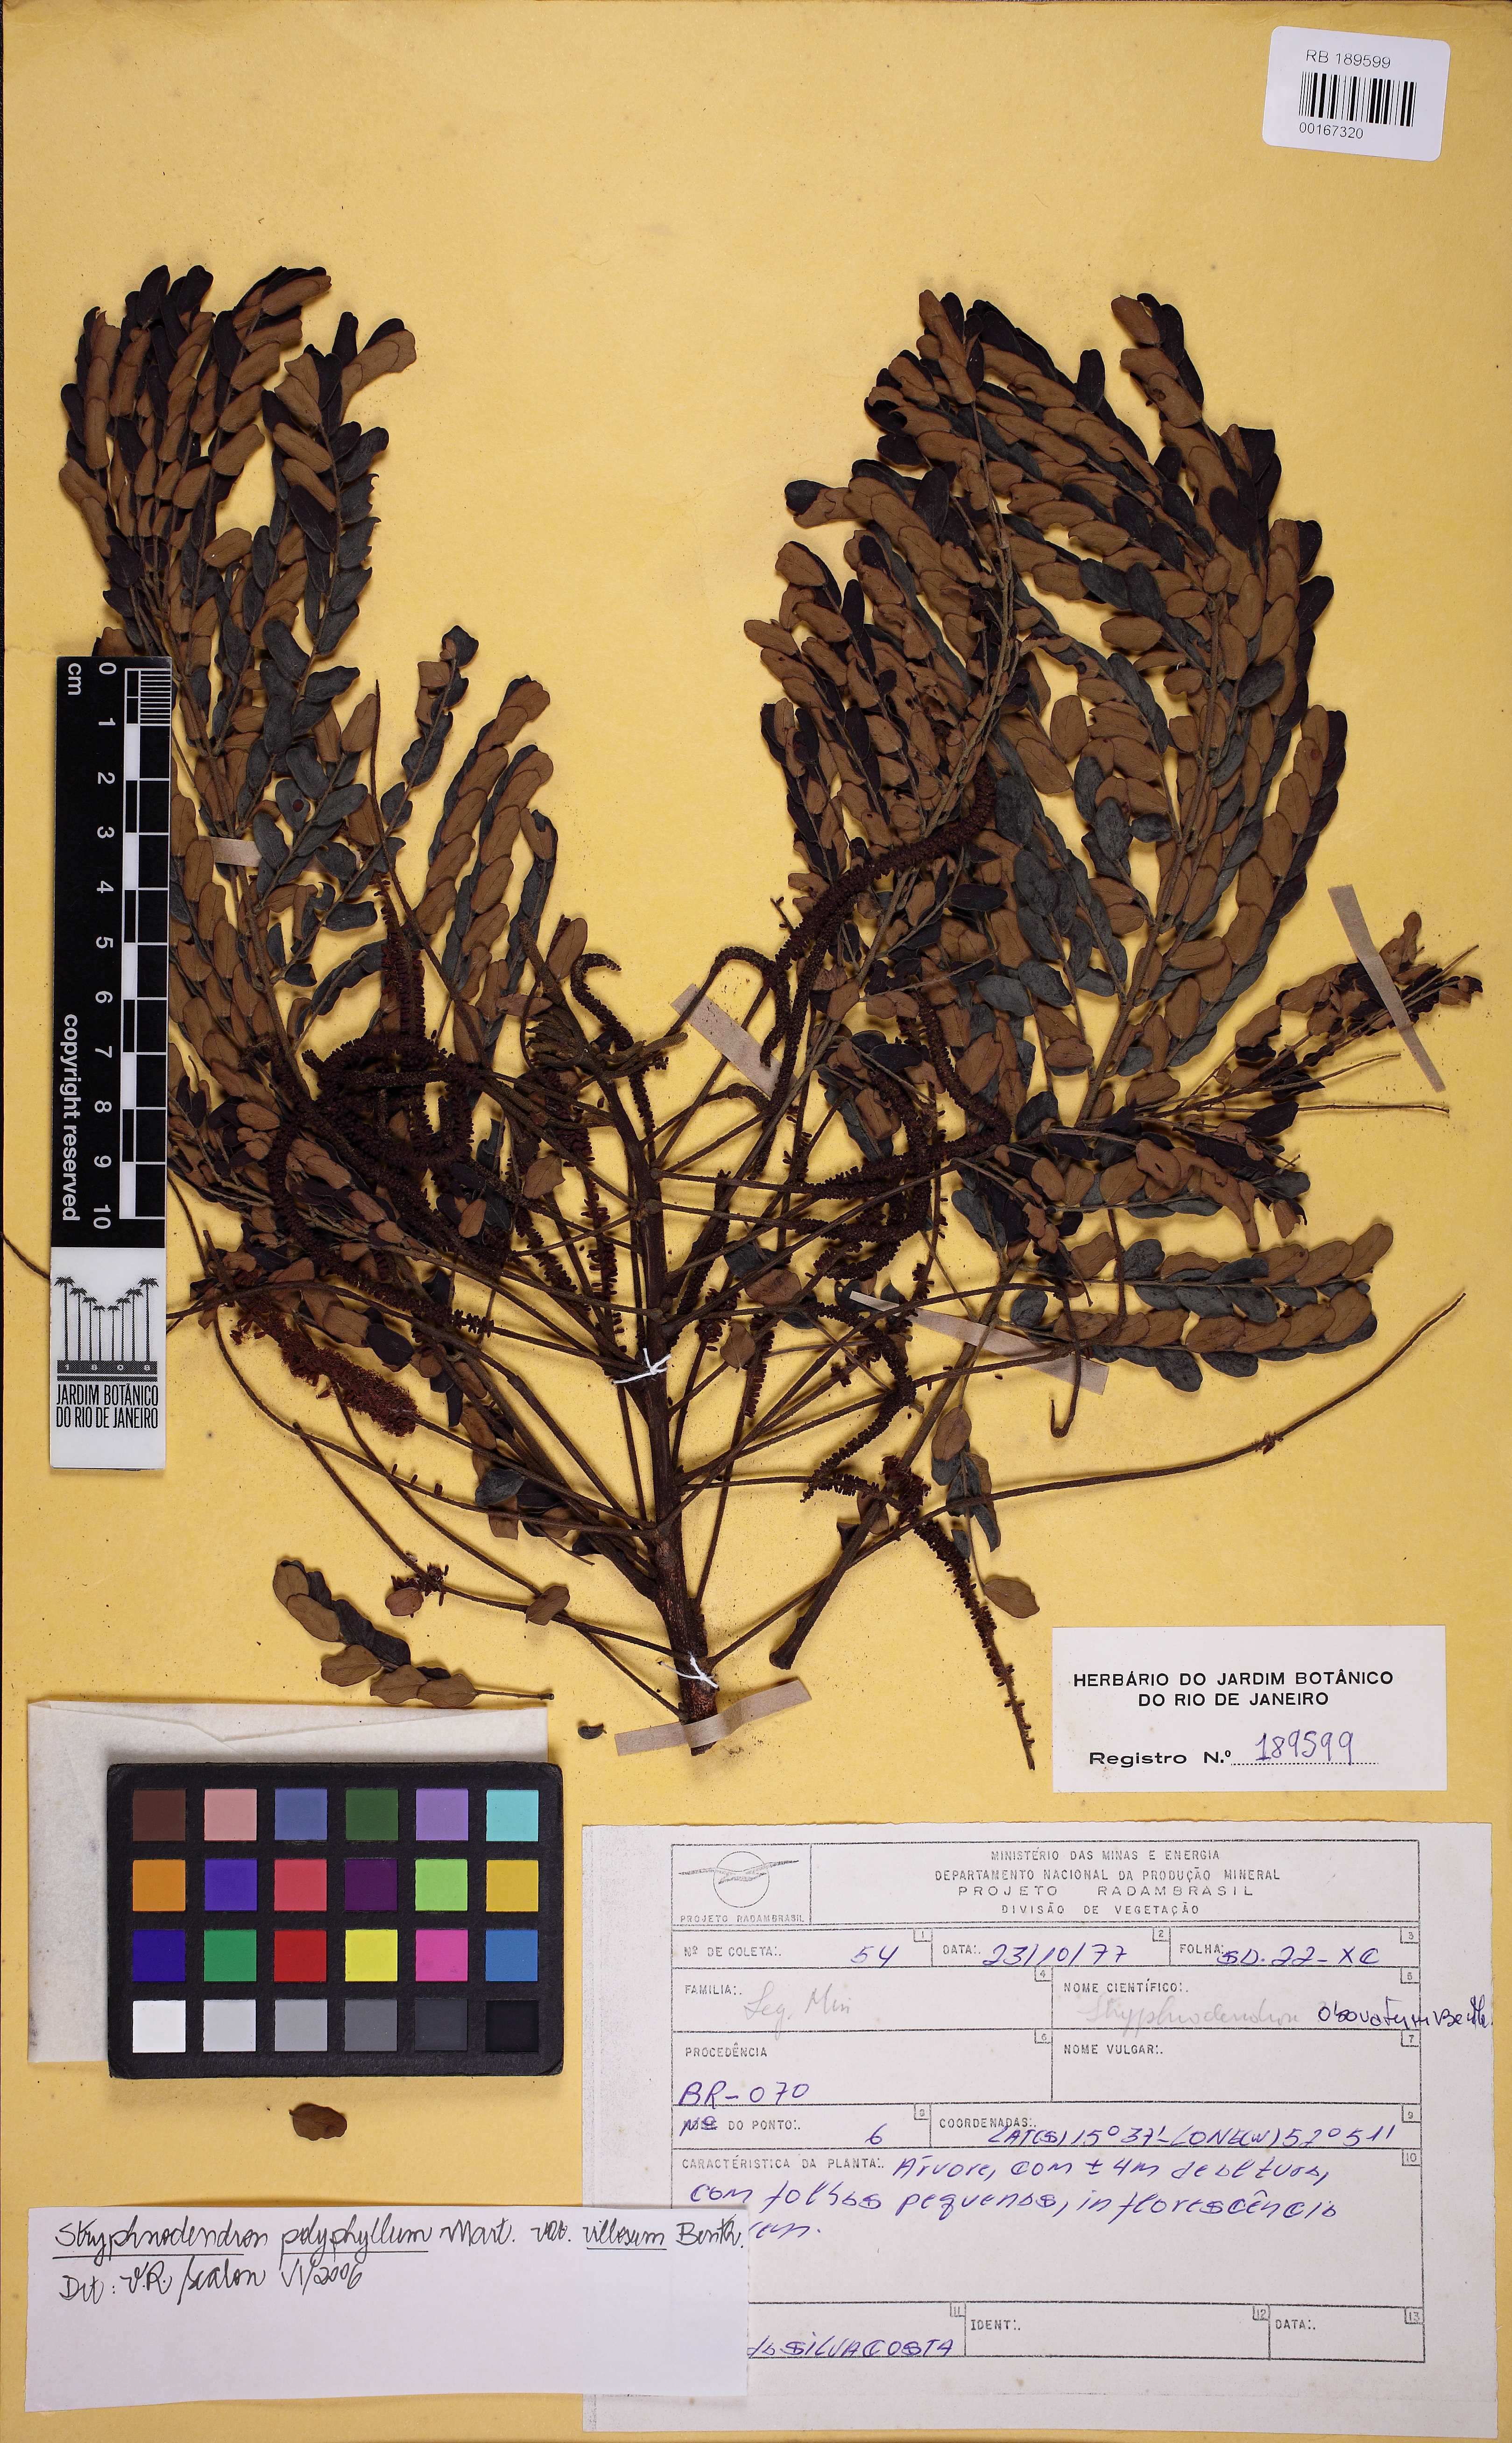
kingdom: Plantae
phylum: Tracheophyta
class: Magnoliopsida
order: Fabales
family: Fabaceae
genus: Stryphnodendron
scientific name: Stryphnodendron polyphyllum
